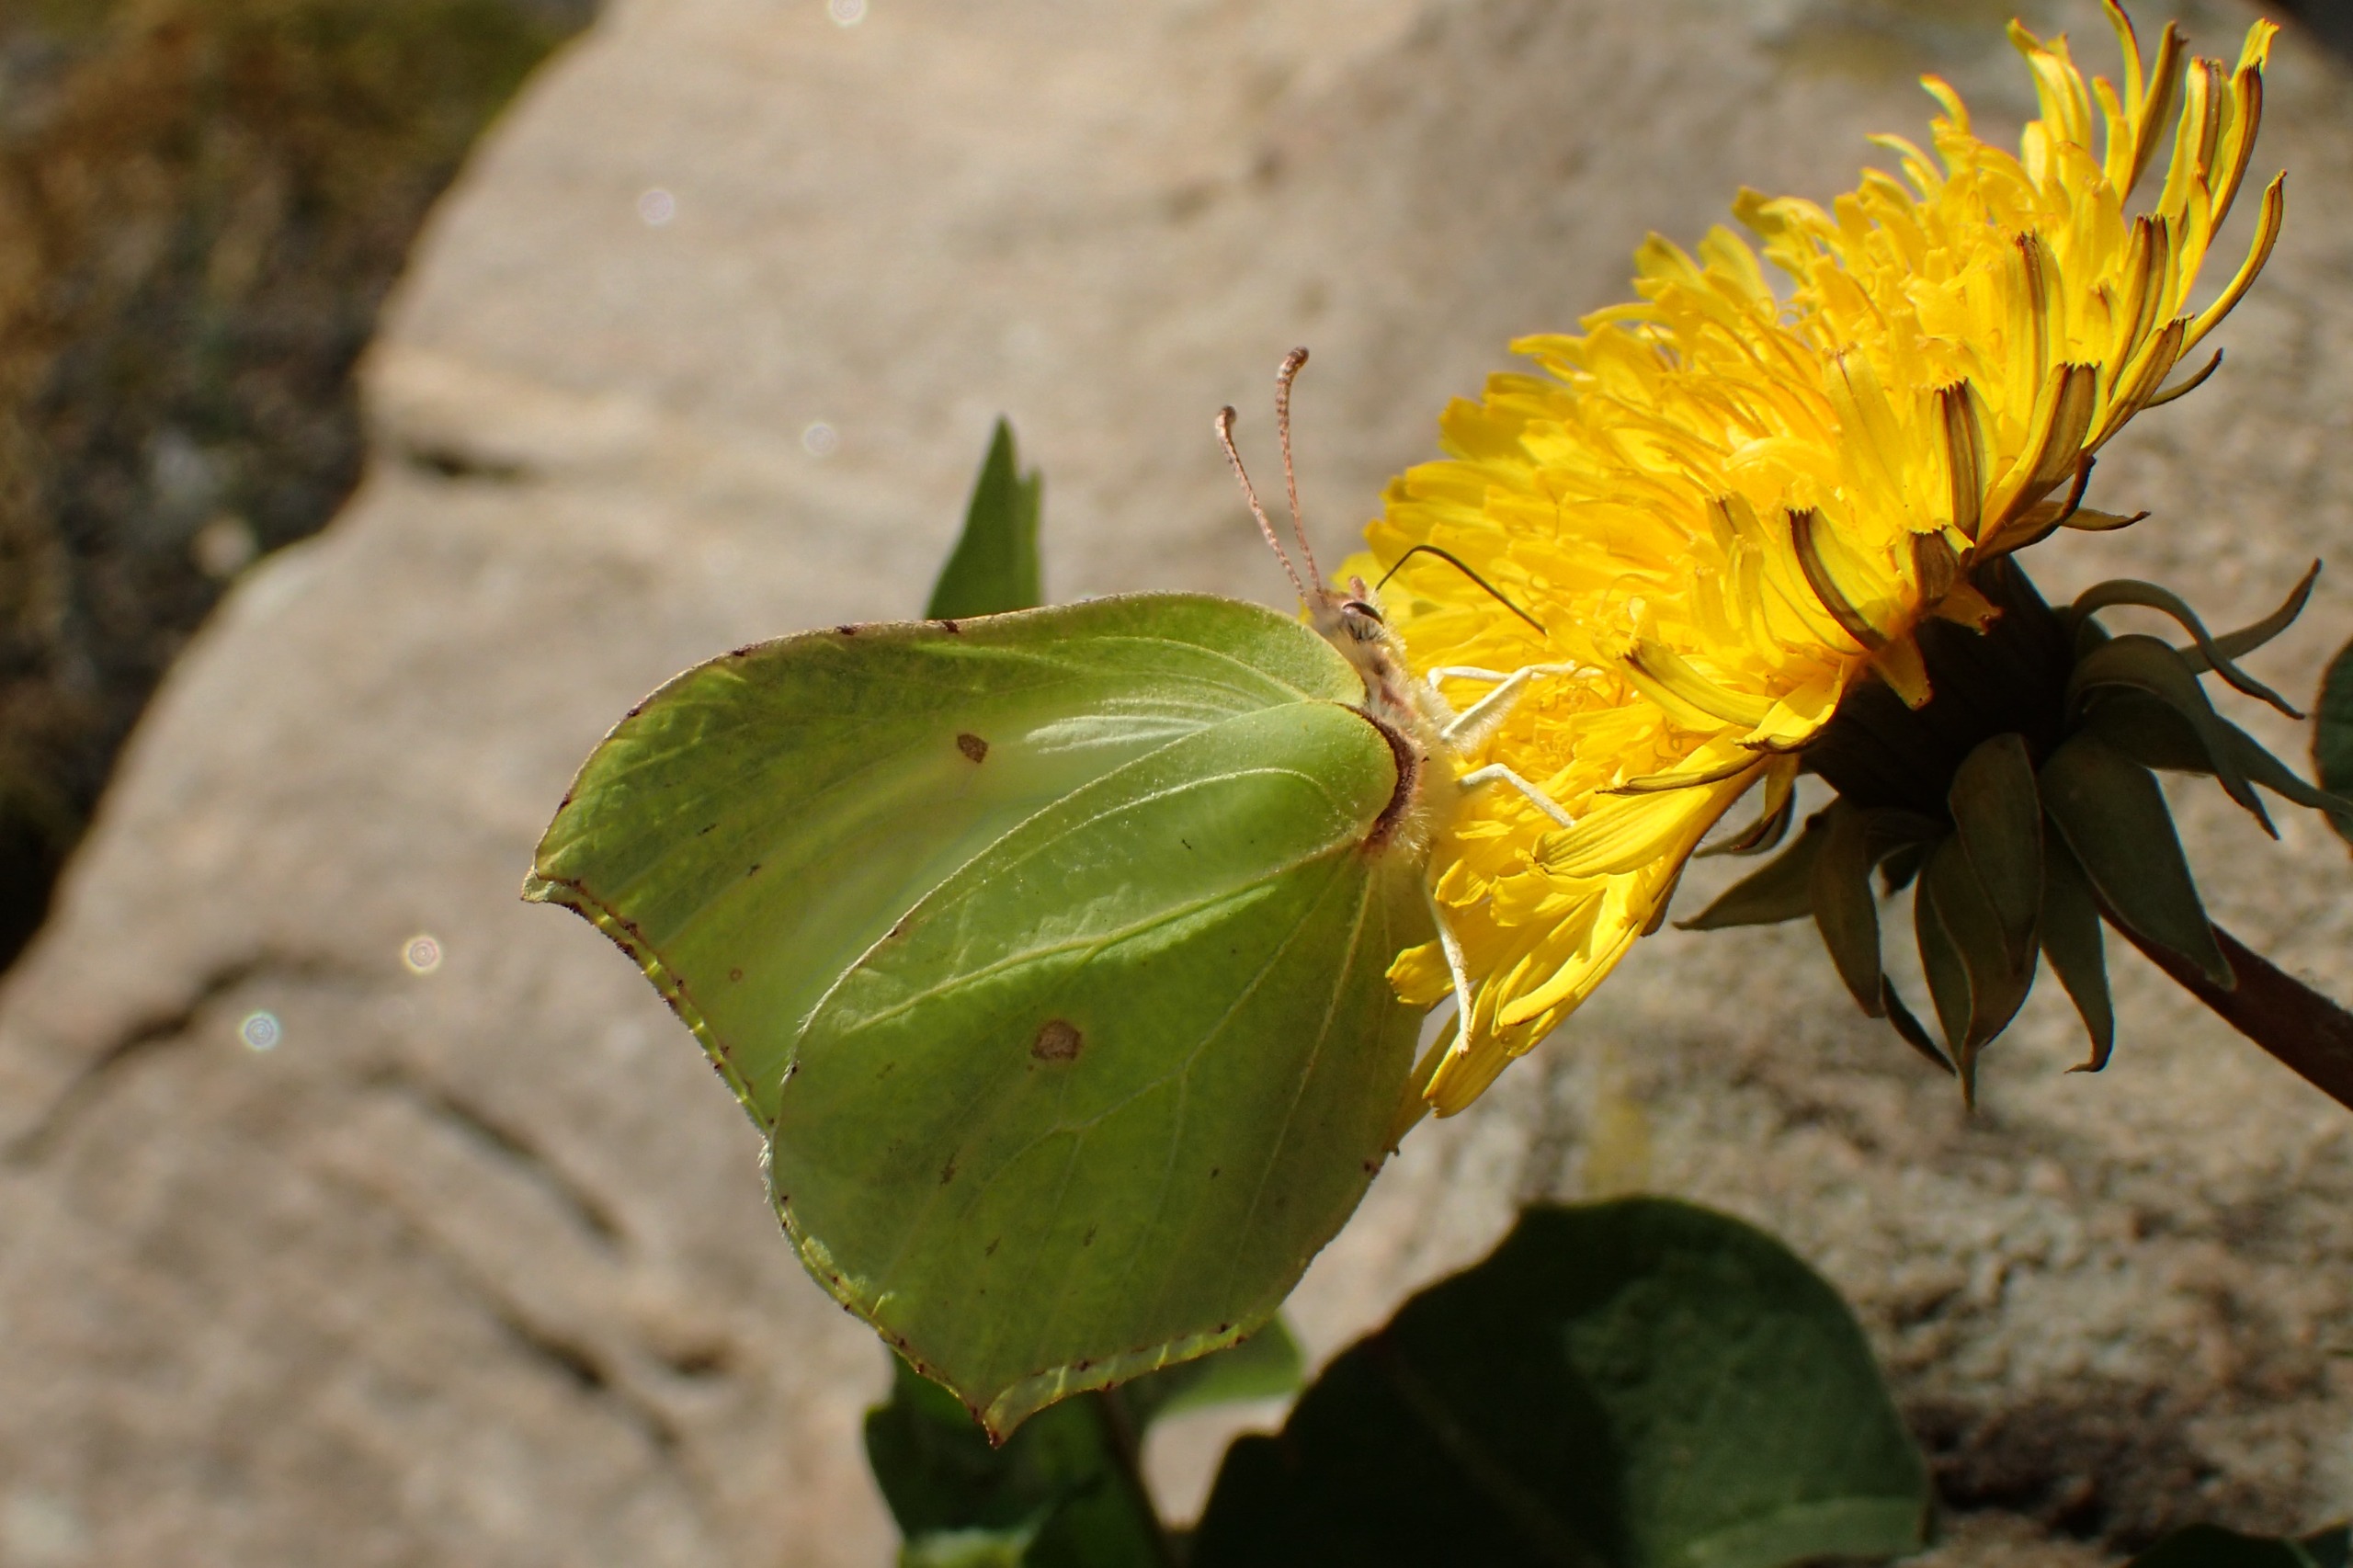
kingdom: Animalia
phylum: Arthropoda
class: Insecta
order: Lepidoptera
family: Pieridae
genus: Gonepteryx
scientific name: Gonepteryx rhamni
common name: Citronsommerfugl
